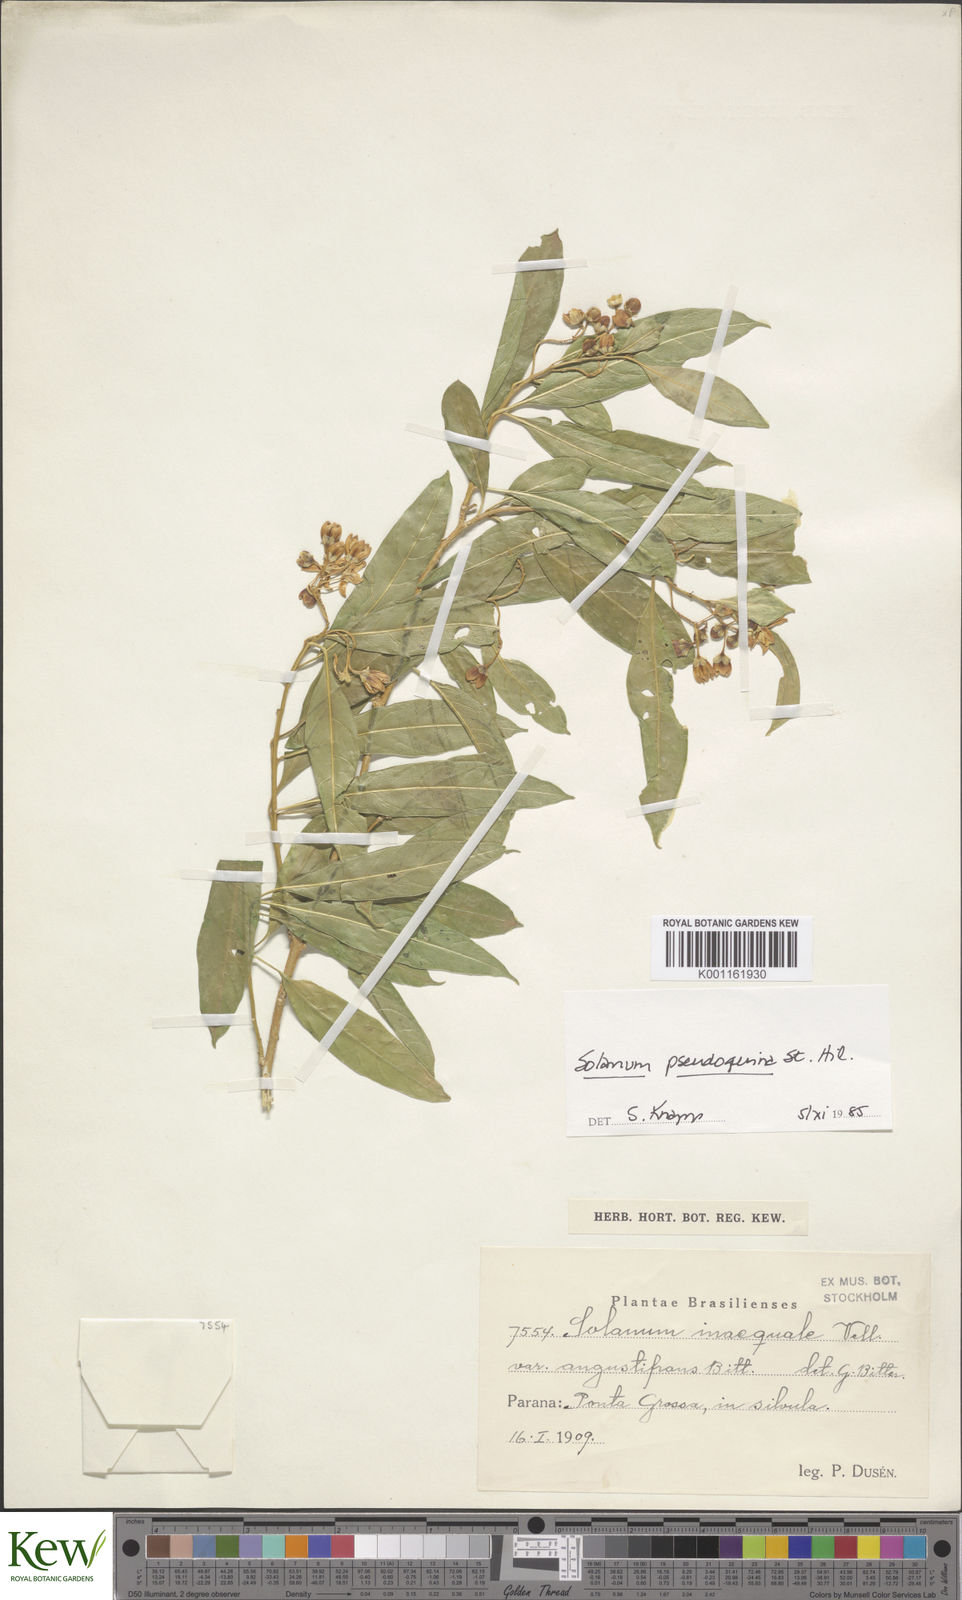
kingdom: Plantae
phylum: Tracheophyta
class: Magnoliopsida
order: Solanales
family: Solanaceae
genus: Solanum
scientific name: Solanum pseudoquina
